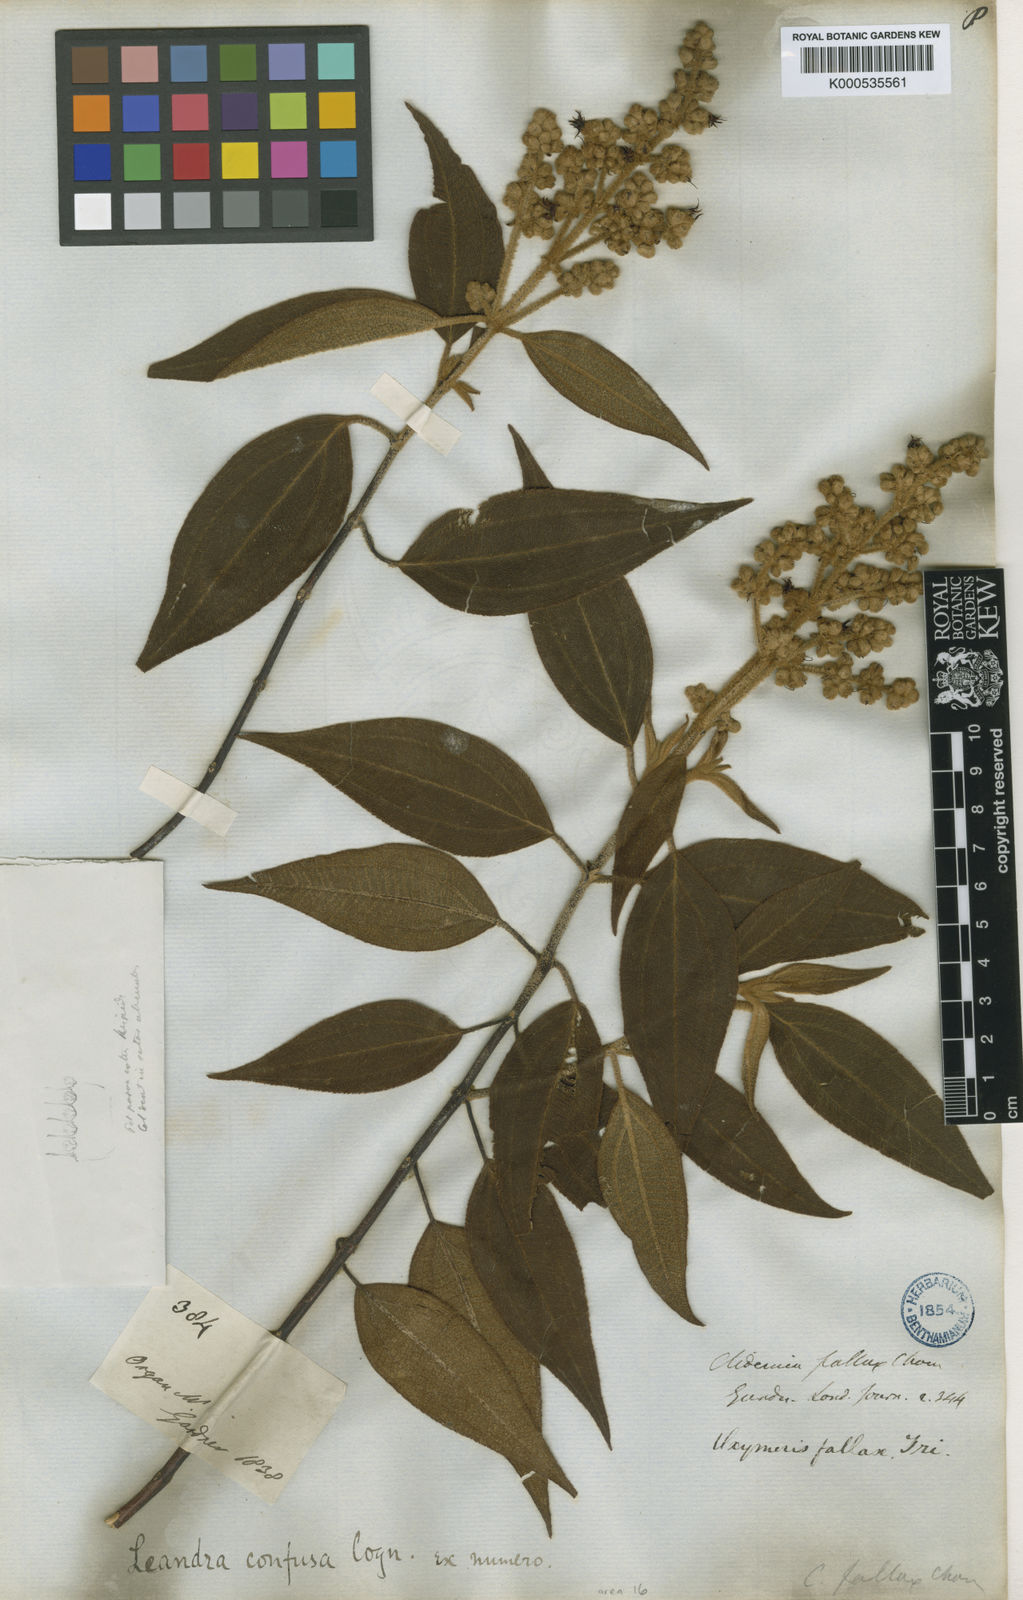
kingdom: Plantae
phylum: Tracheophyta
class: Magnoliopsida
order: Myrtales
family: Melastomataceae
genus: Miconia
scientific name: Miconia leaconfusa
